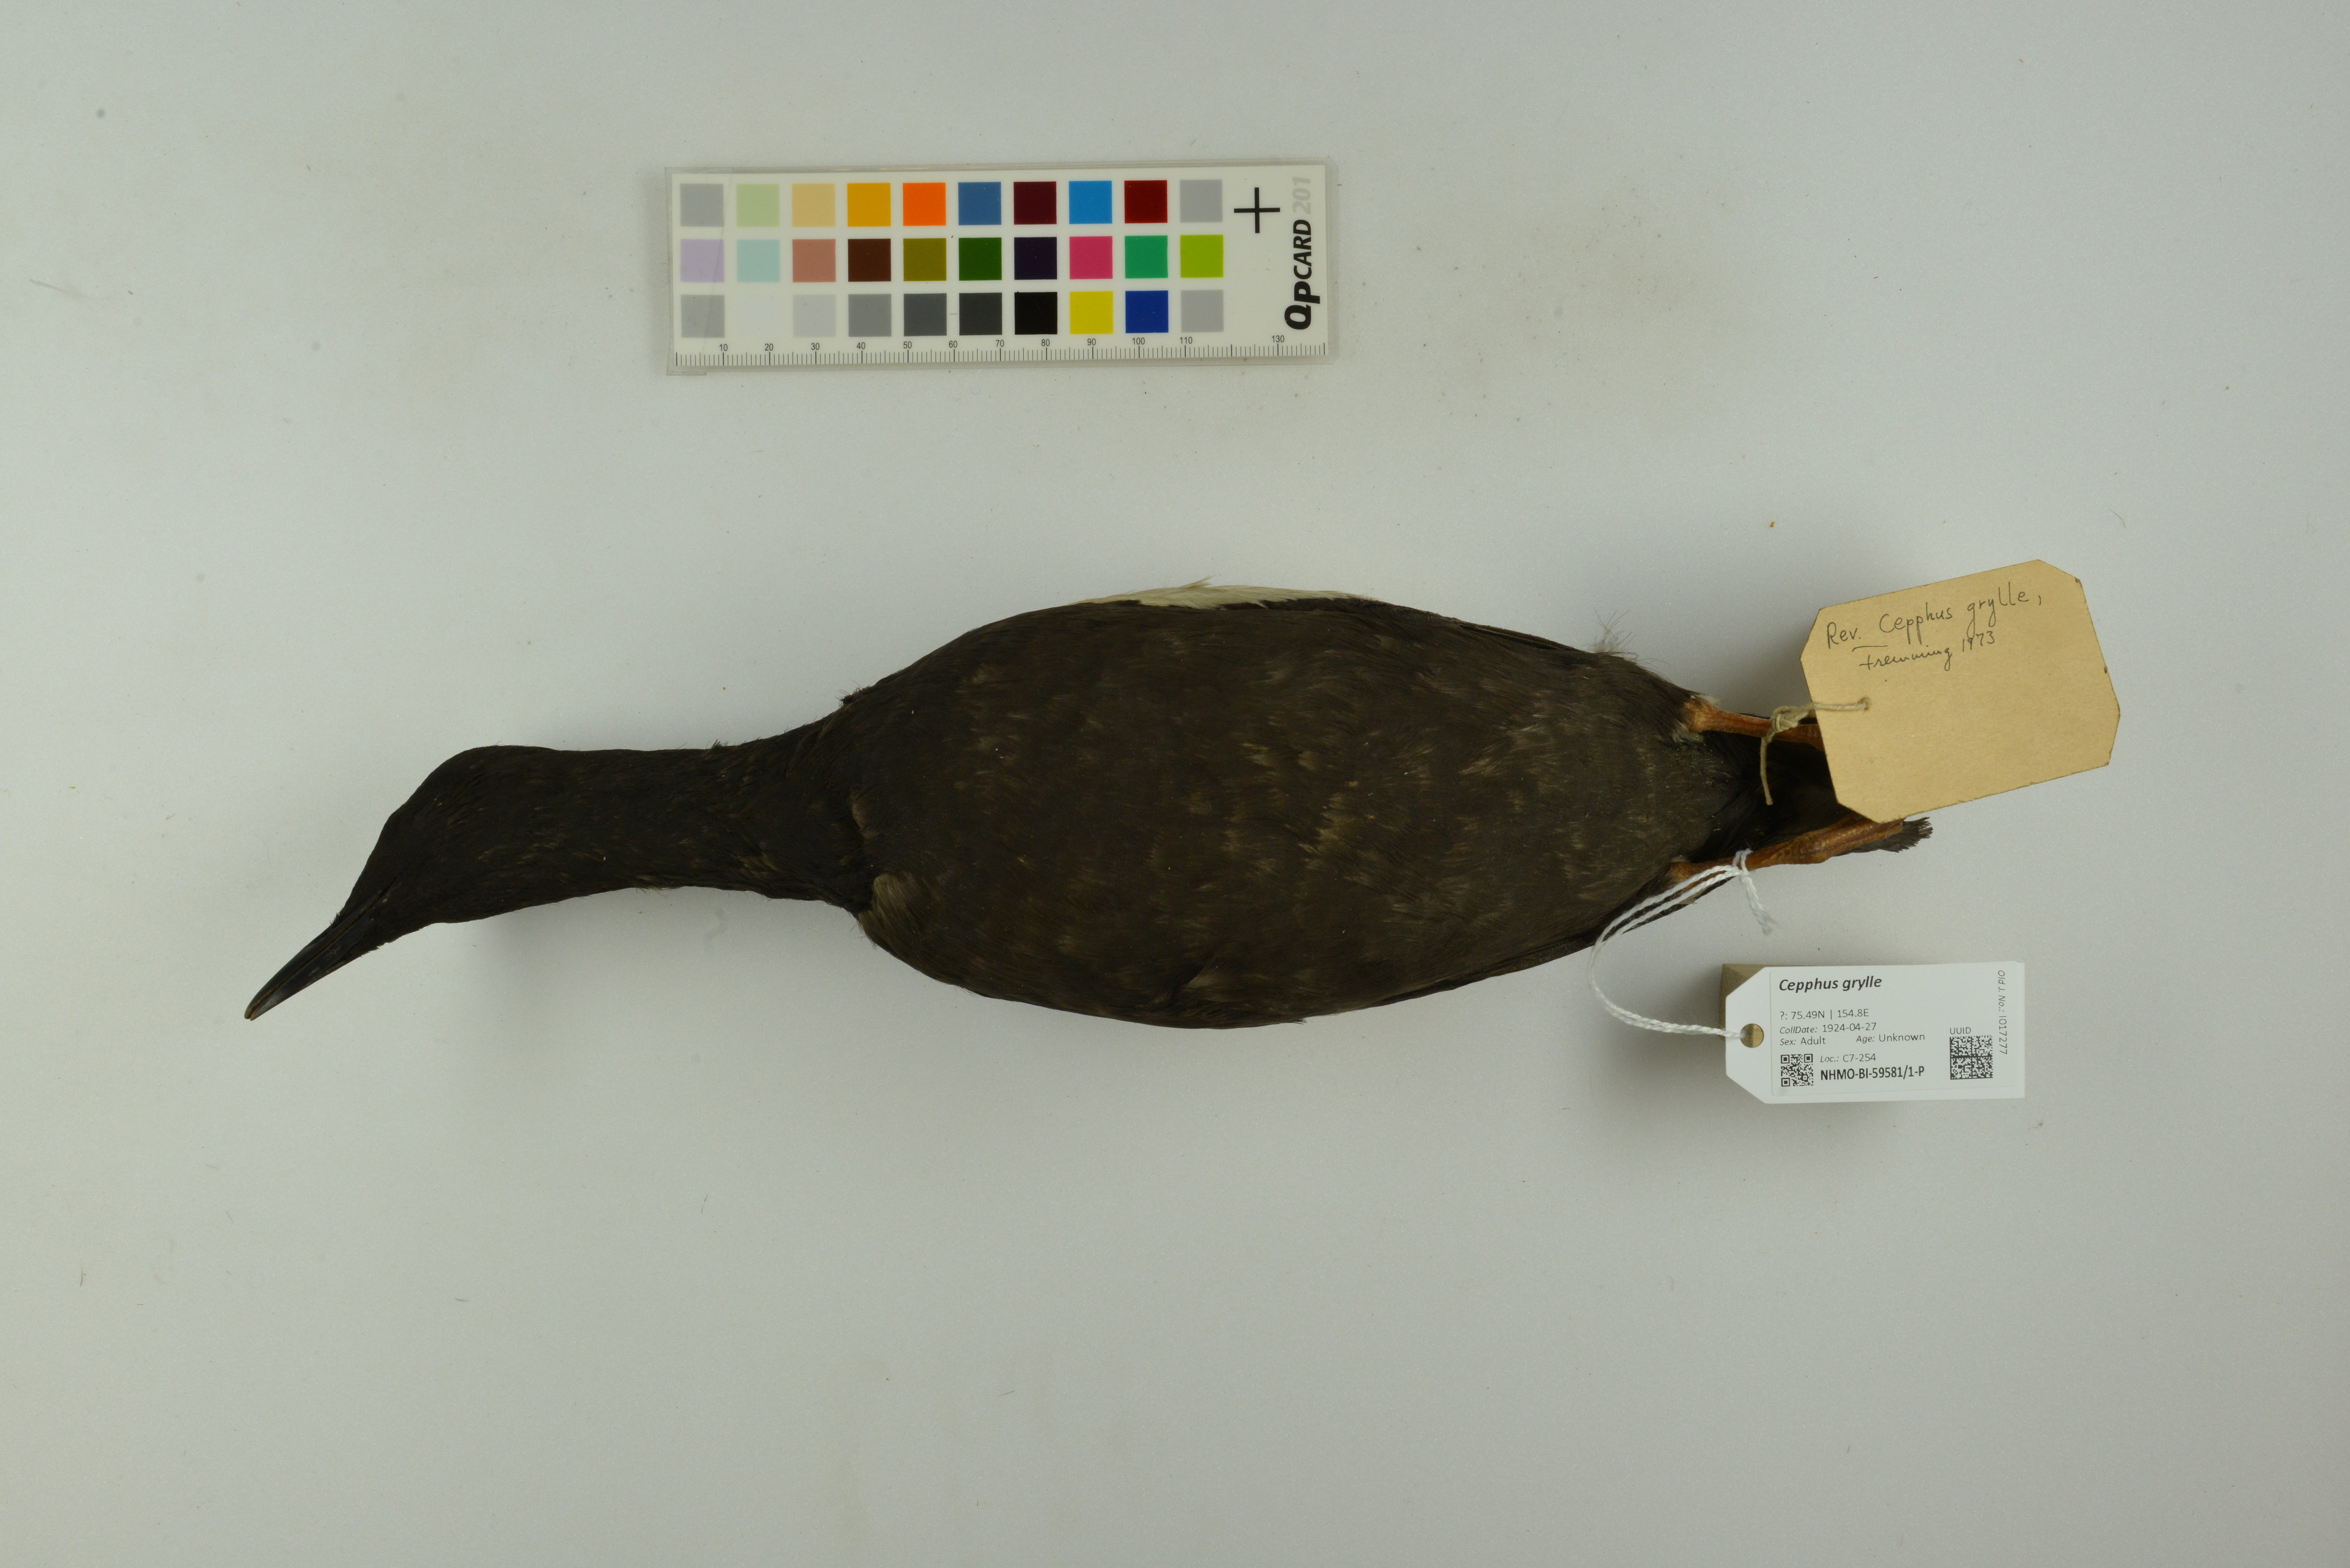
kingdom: Animalia
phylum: Chordata
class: Aves
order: Charadriiformes
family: Alcidae
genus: Cepphus
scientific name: Cepphus grylle
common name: Black guillemot
